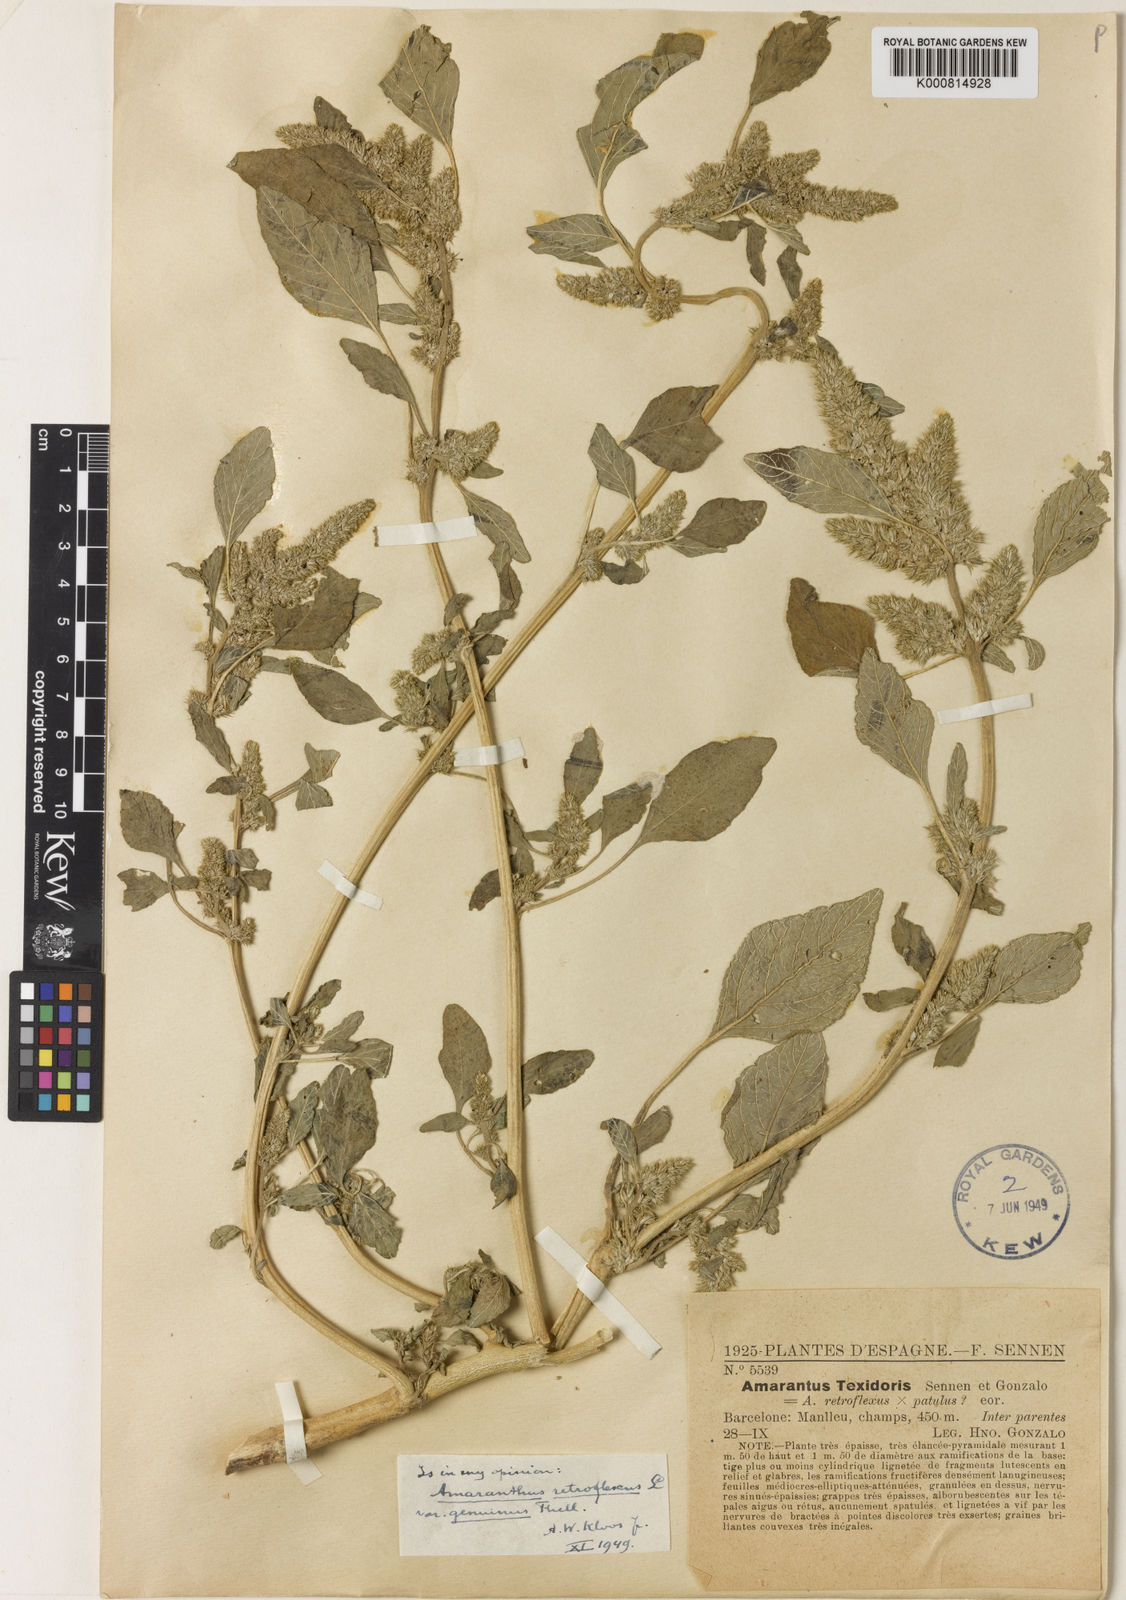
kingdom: Plantae
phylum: Tracheophyta
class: Magnoliopsida
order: Caryophyllales
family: Amaranthaceae
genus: Amaranthus
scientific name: Amaranthus retroflexus
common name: Redroot amaranth
